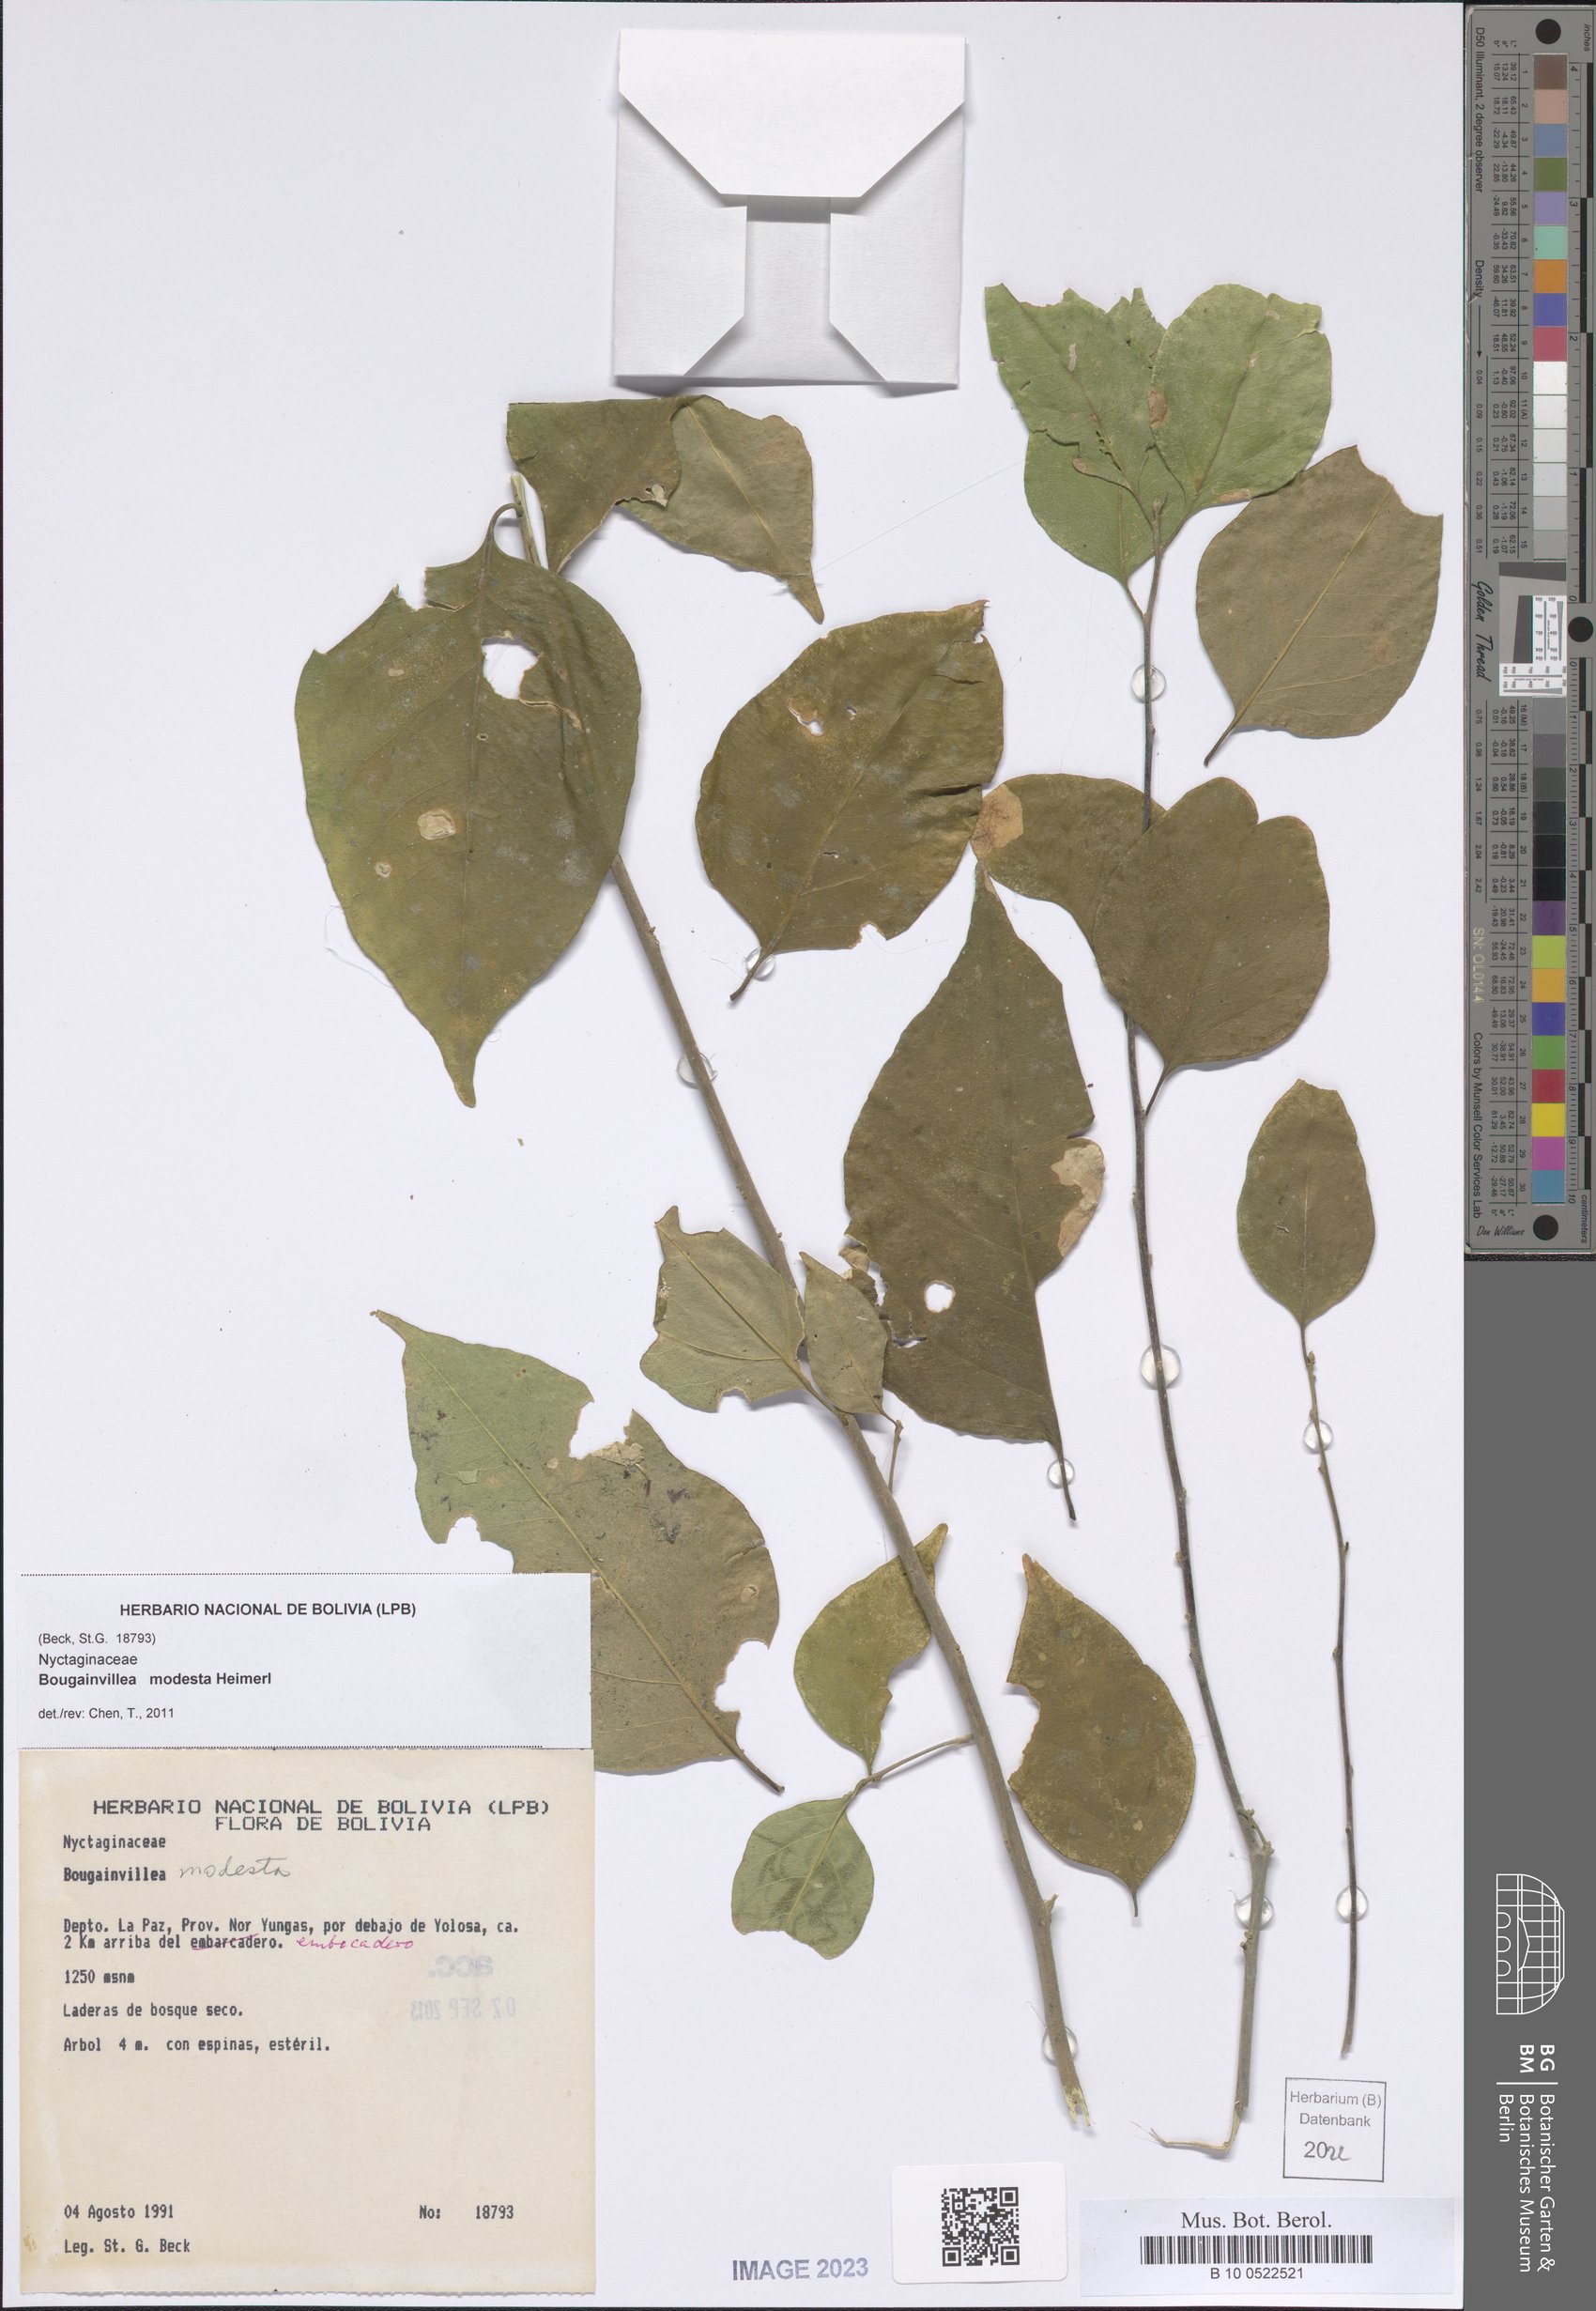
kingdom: Plantae
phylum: Tracheophyta
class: Magnoliopsida
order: Caryophyllales
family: Nyctaginaceae
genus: Bougainvillea
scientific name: Bougainvillea modesta
